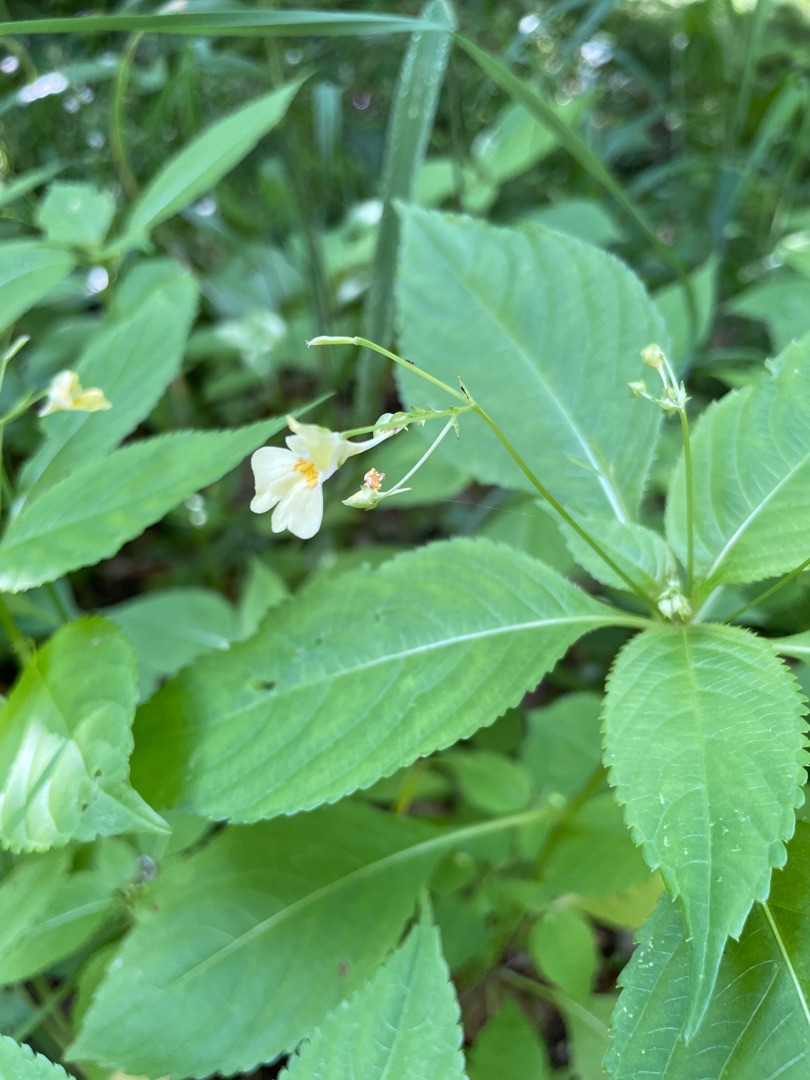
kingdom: Plantae
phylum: Tracheophyta
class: Magnoliopsida
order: Ericales
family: Balsaminaceae
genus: Impatiens
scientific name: Impatiens parviflora
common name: Småblomstret balsamin
